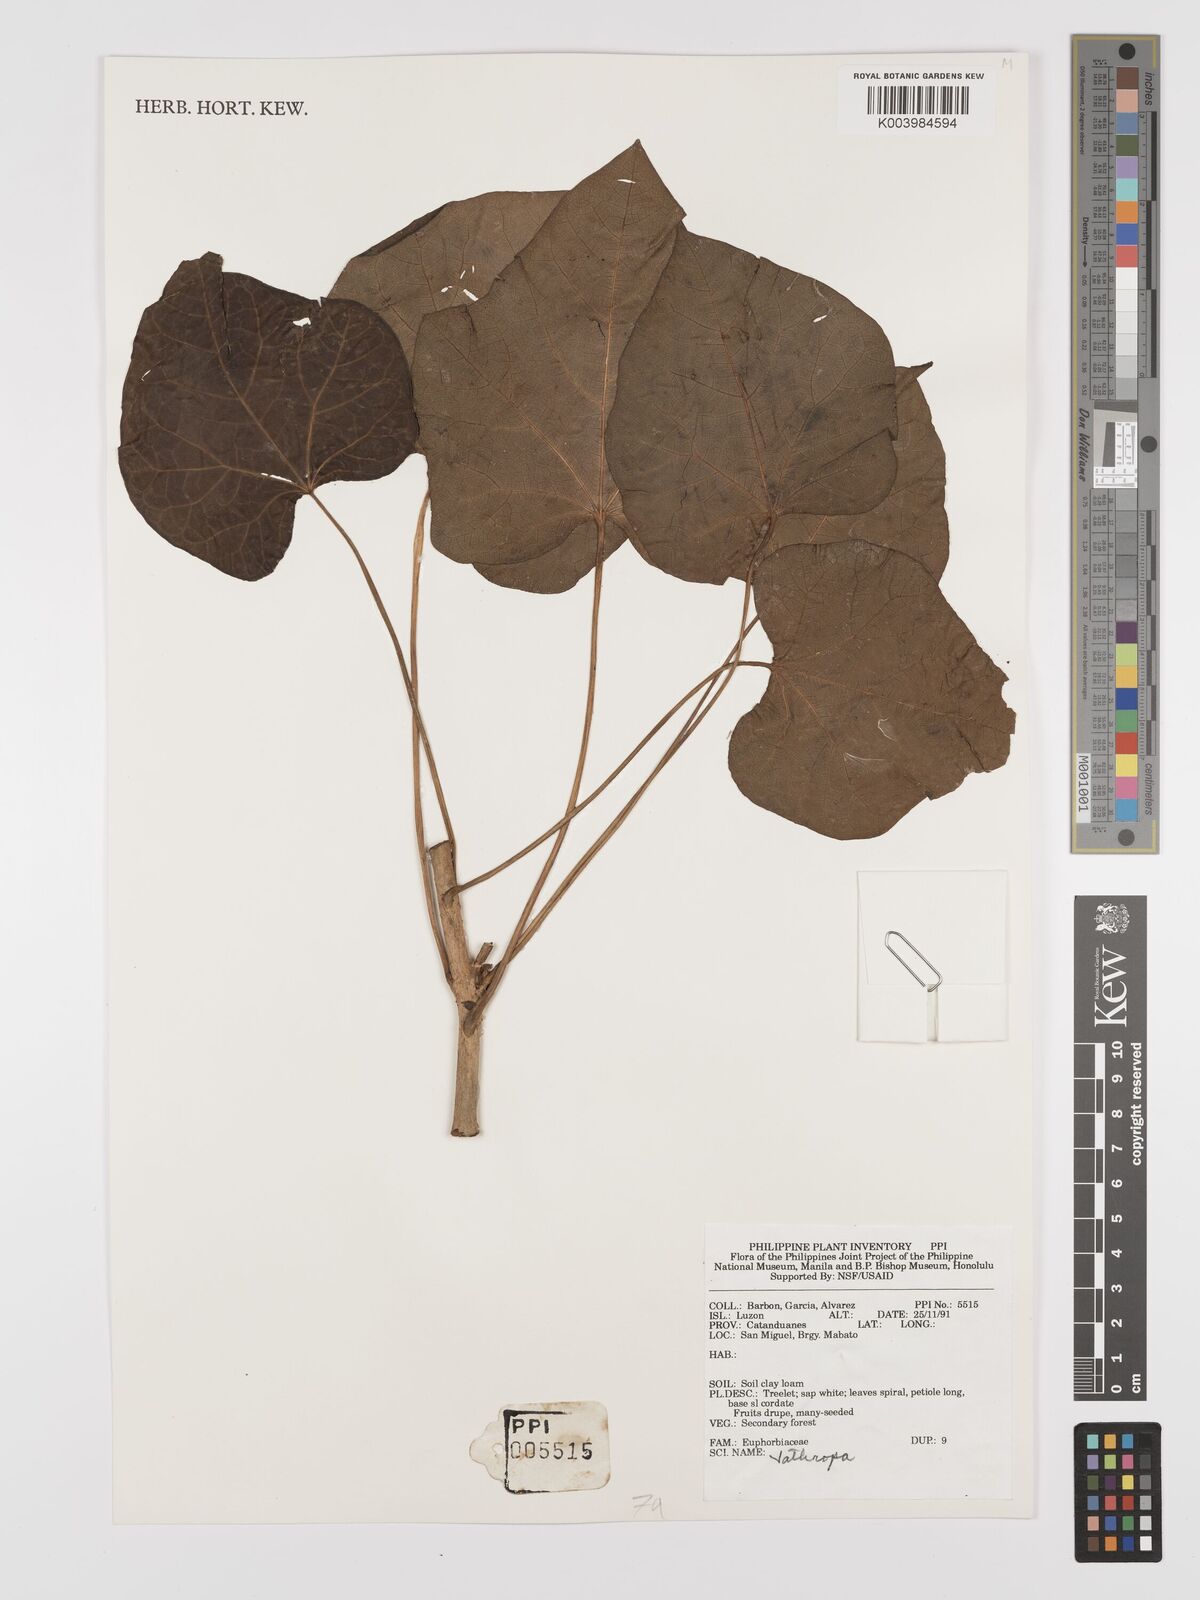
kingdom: Plantae
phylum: Tracheophyta
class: Magnoliopsida
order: Malpighiales
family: Euphorbiaceae
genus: Jatropha
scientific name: Jatropha curcas
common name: Barbados nut
